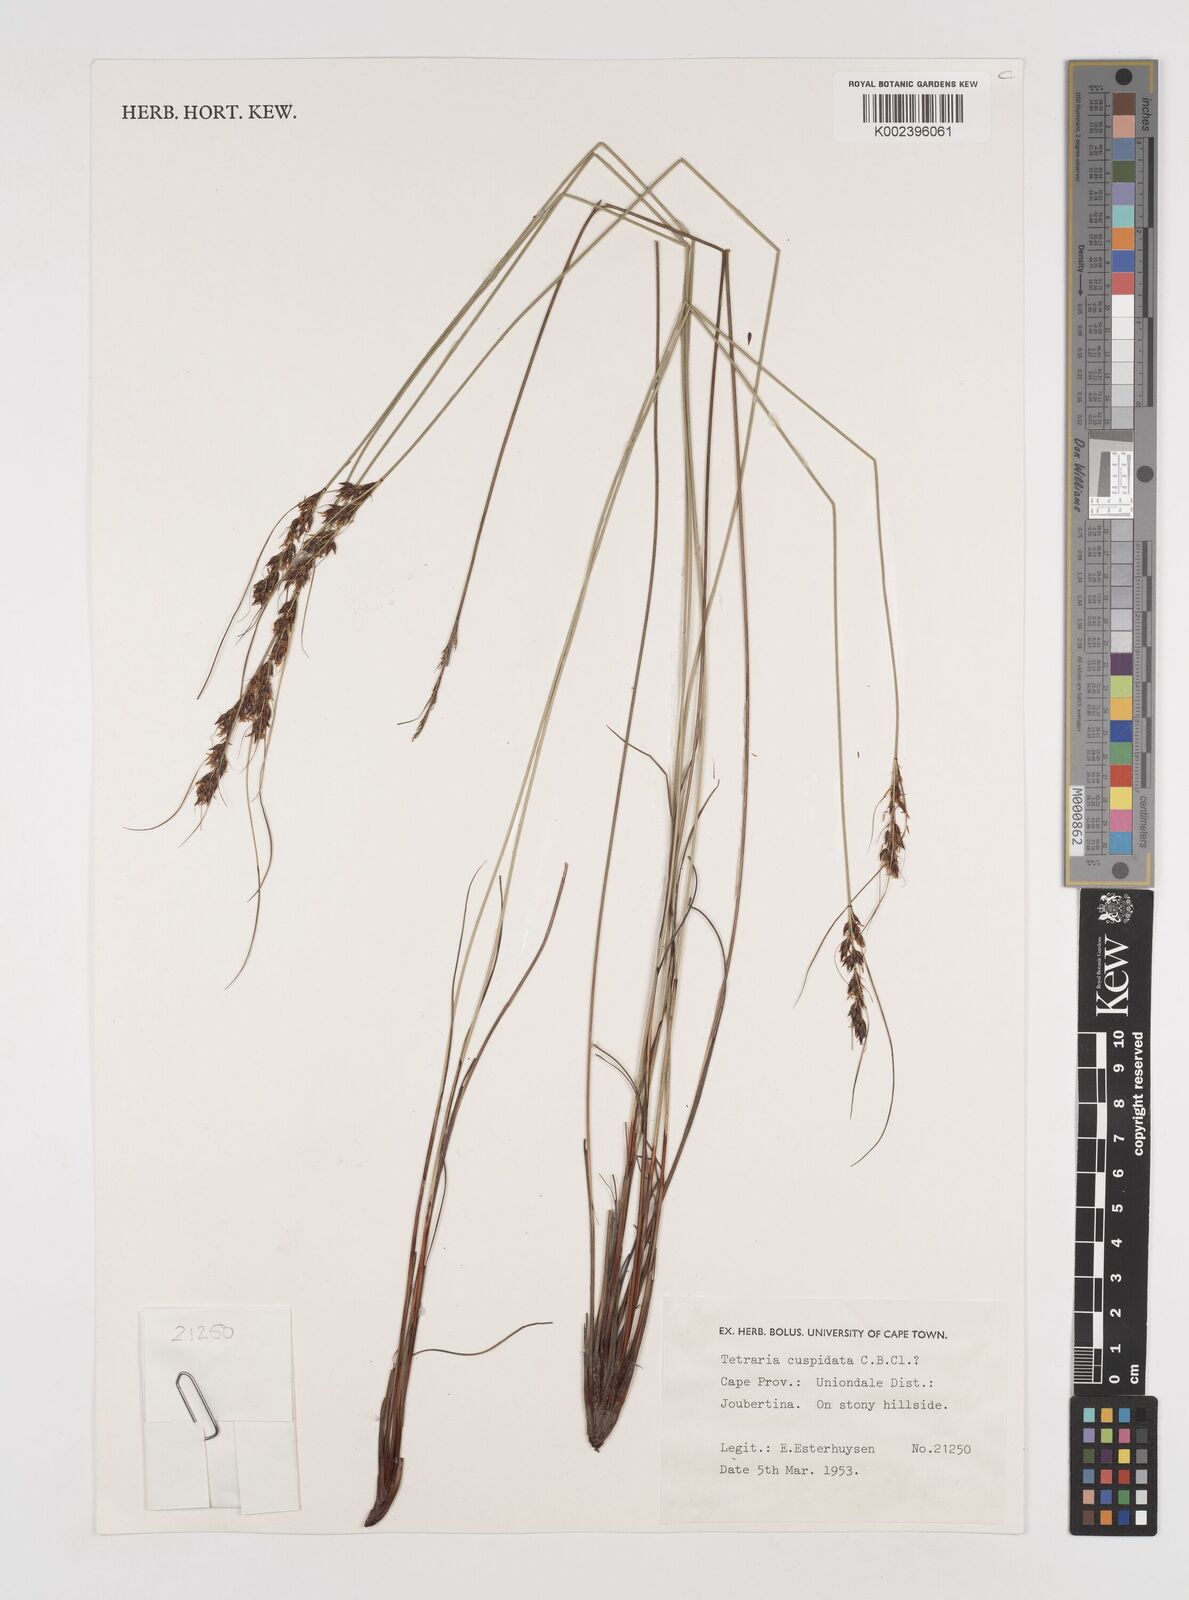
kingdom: Plantae
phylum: Tracheophyta
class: Liliopsida
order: Poales
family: Cyperaceae
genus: Schoenus
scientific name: Schoenus cuspidatus
